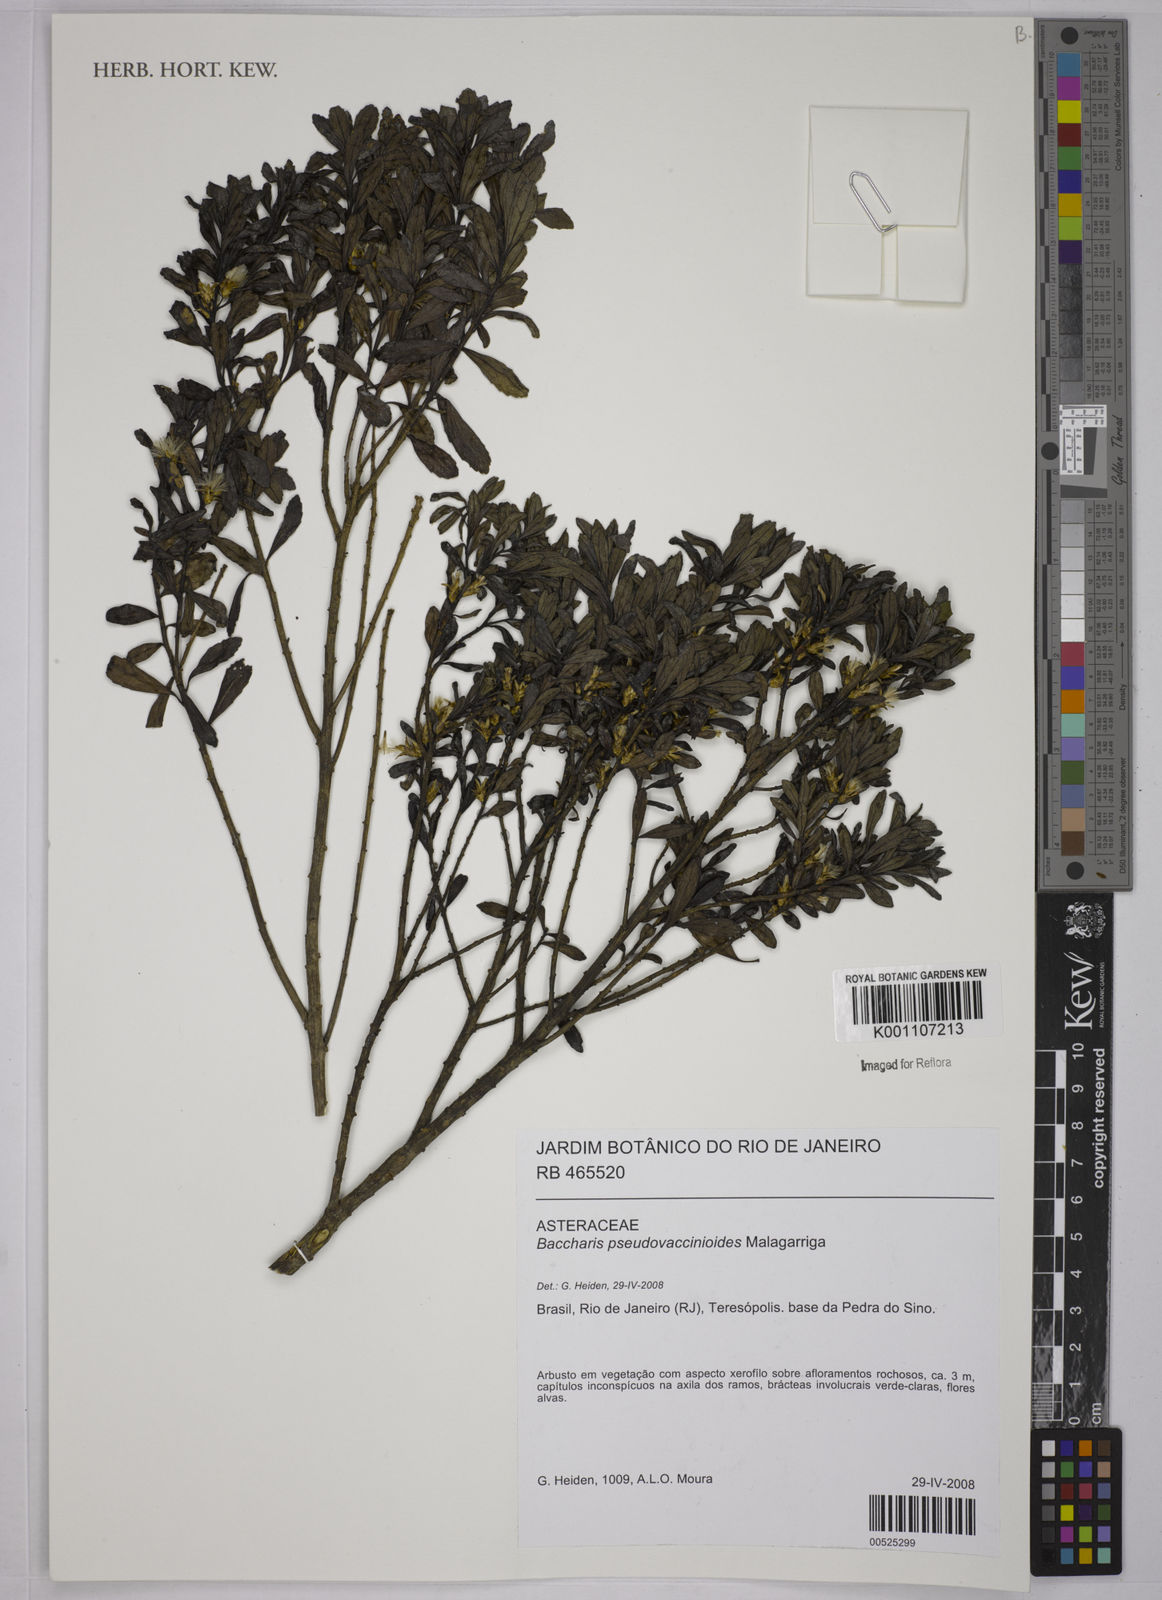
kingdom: Plantae
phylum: Tracheophyta
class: Magnoliopsida
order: Asterales
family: Asteraceae
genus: Baccharis
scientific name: Baccharis pseudovaccinioides
